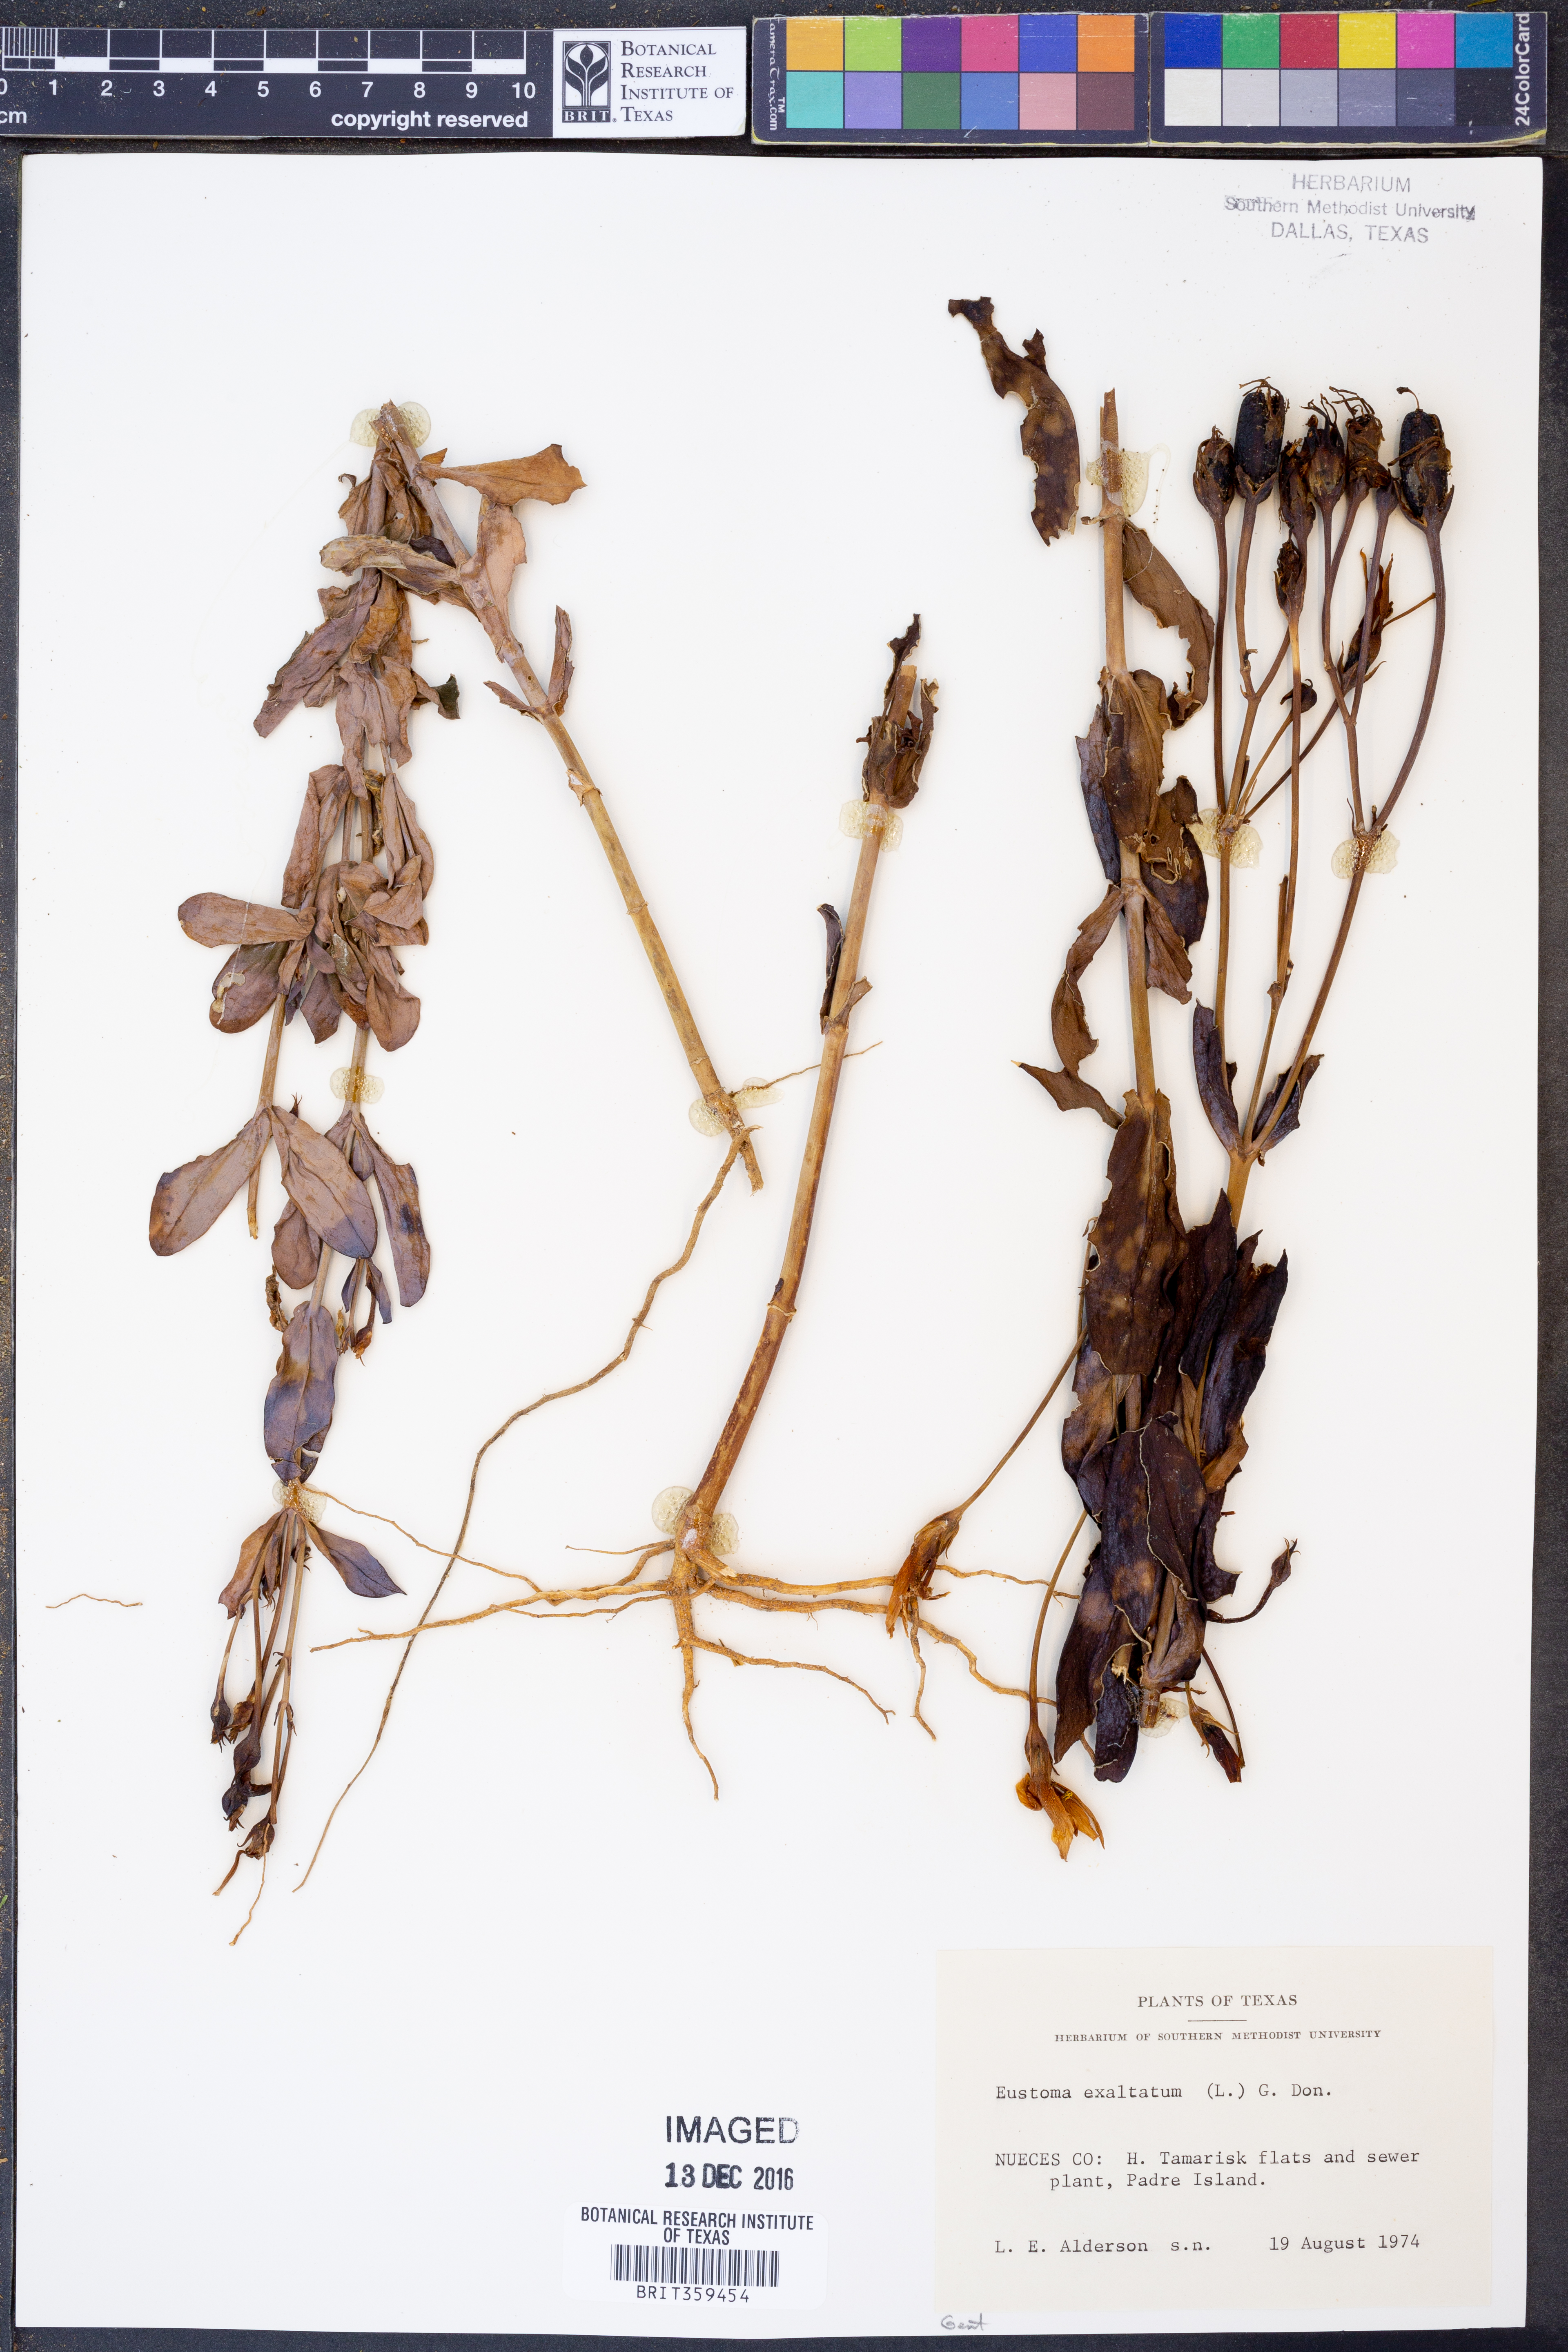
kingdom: Plantae
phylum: Tracheophyta
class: Magnoliopsida
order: Gentianales
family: Gentianaceae
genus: Eustoma
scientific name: Eustoma exaltatum
